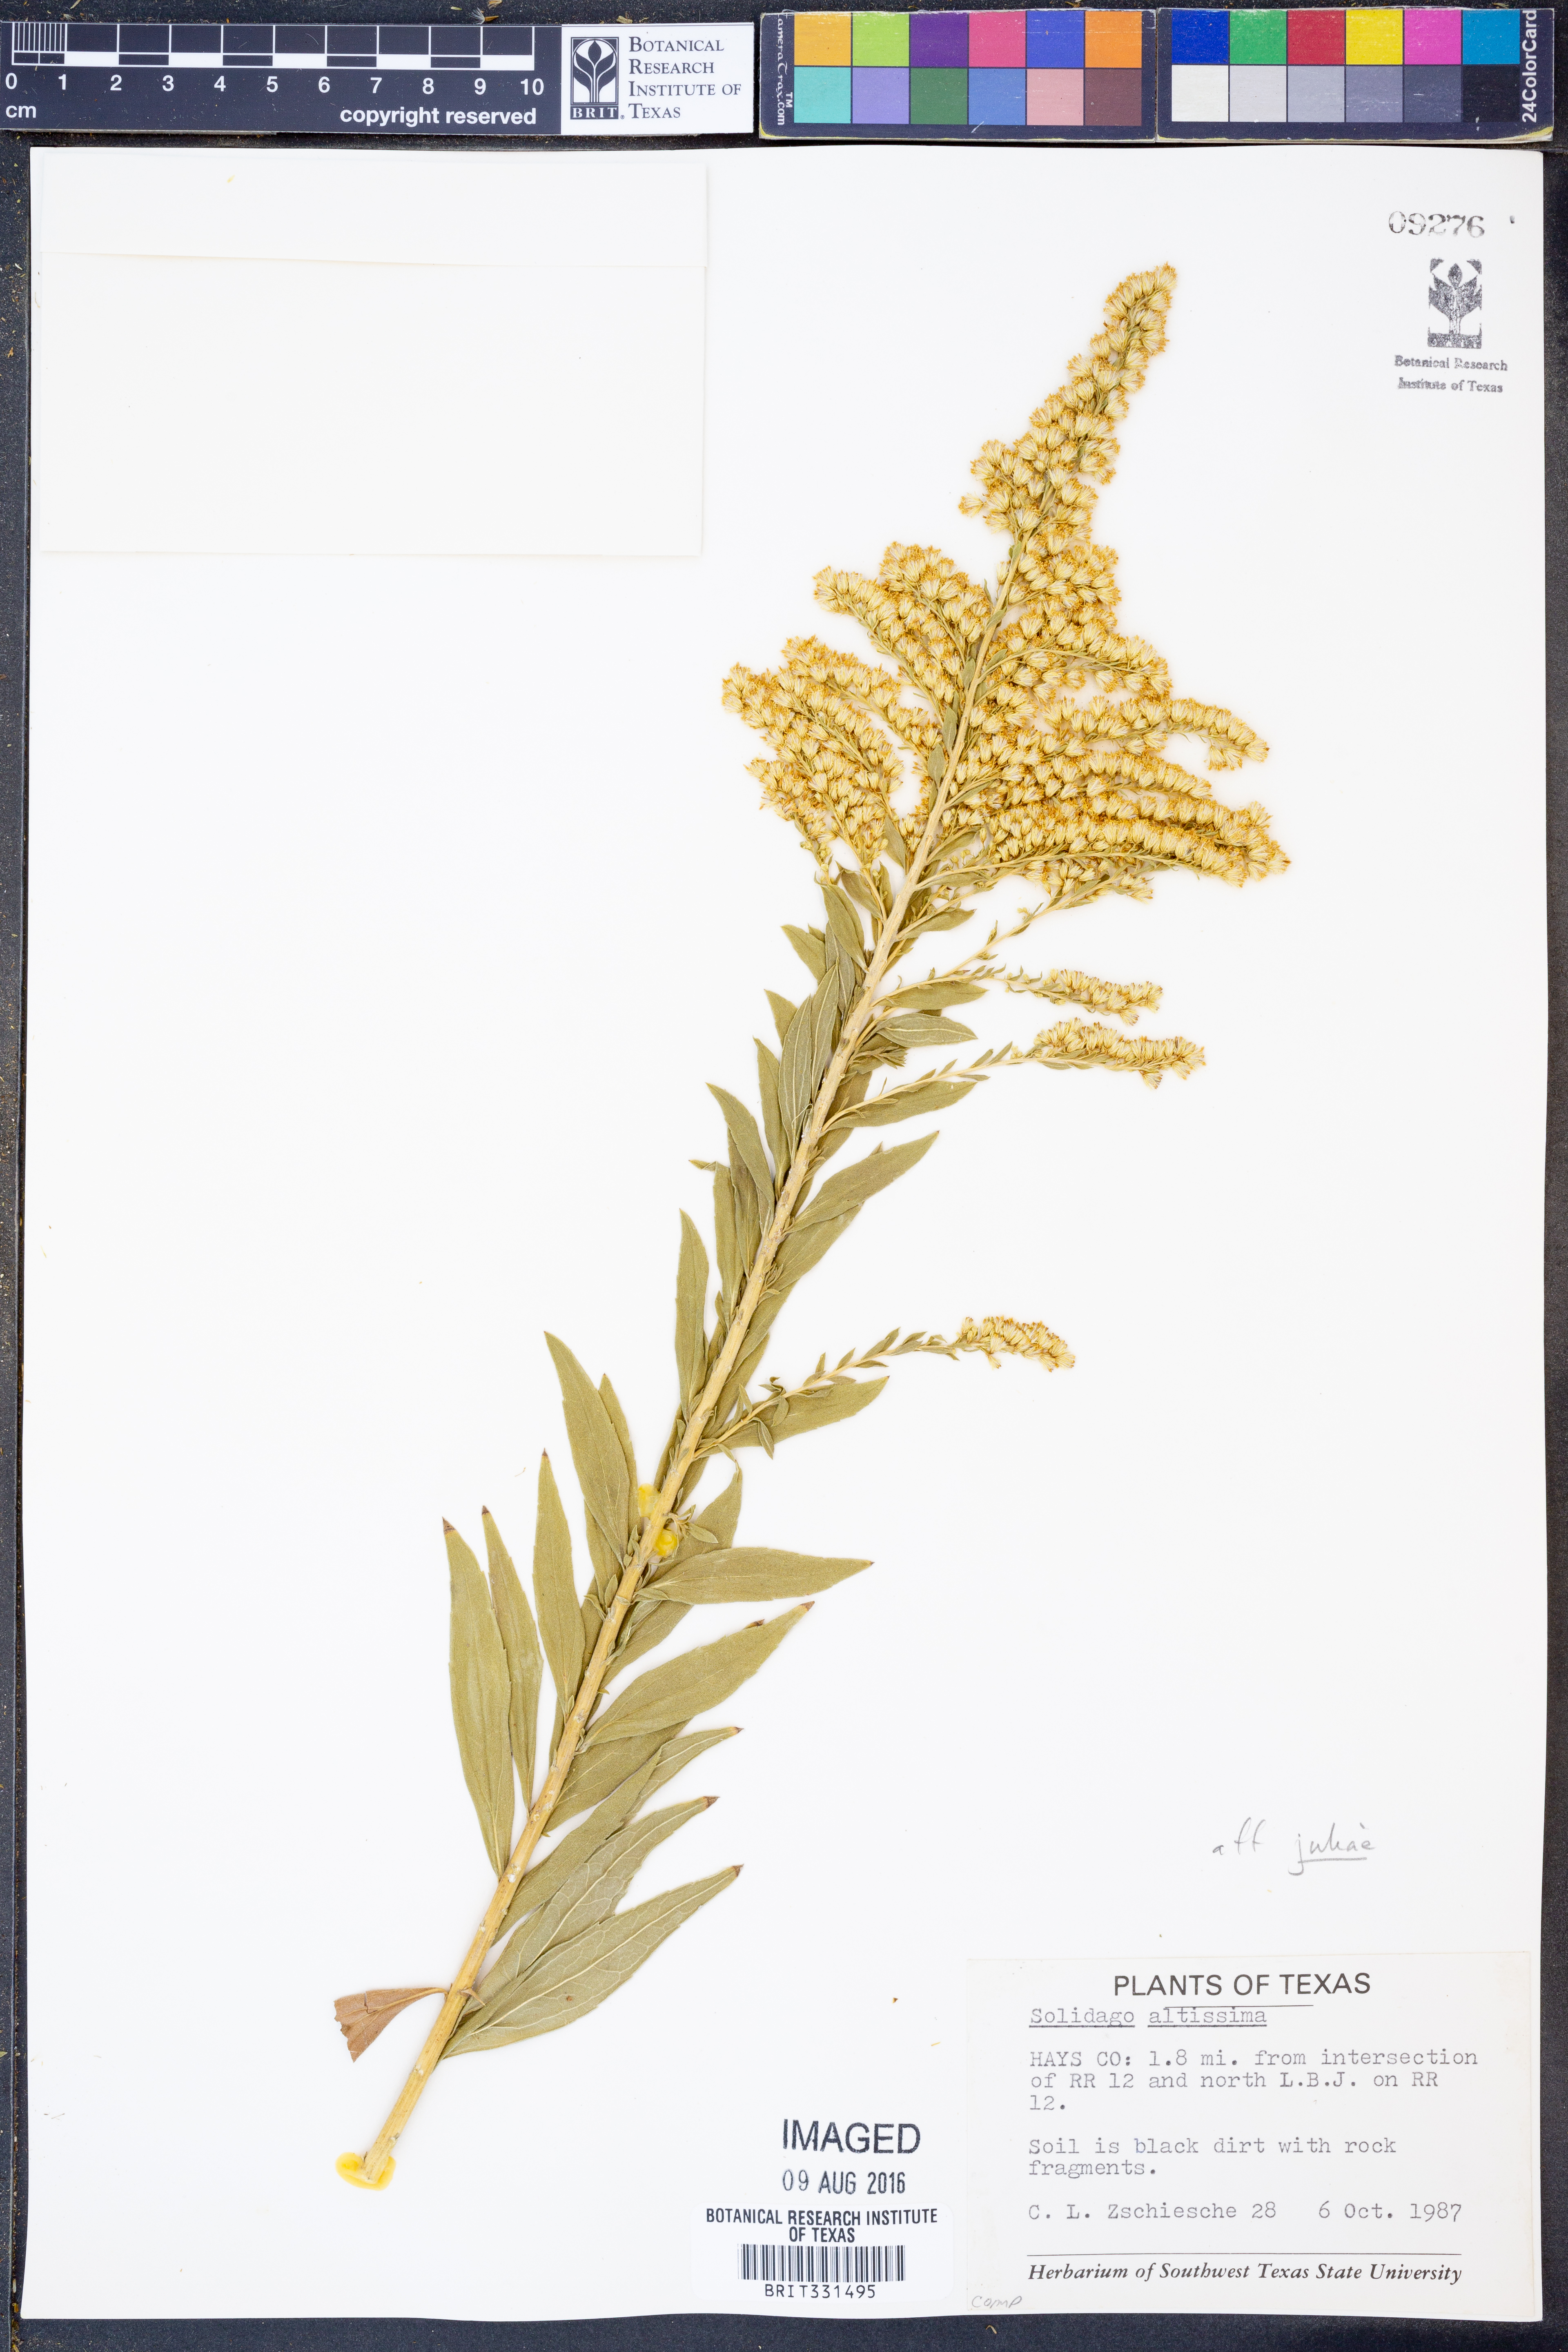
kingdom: Plantae
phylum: Tracheophyta
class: Magnoliopsida
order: Asterales
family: Asteraceae
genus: Solidago
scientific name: Solidago altissima
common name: Late goldenrod
